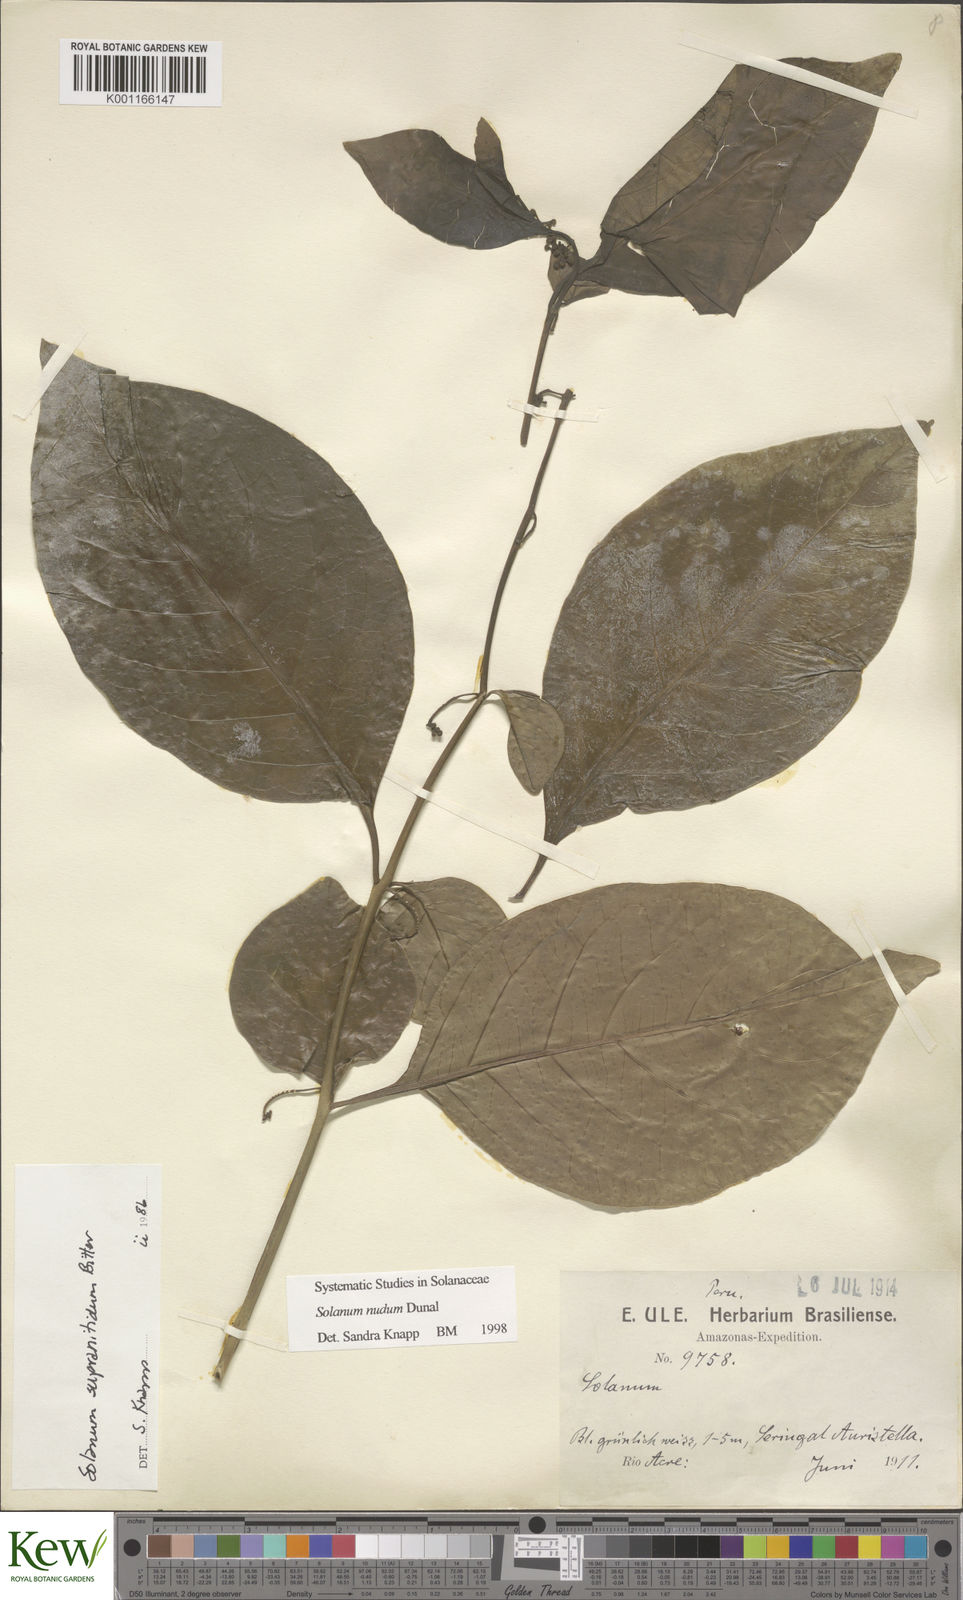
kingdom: Plantae
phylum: Tracheophyta
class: Magnoliopsida
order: Solanales
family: Solanaceae
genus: Solanum
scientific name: Solanum nudum
